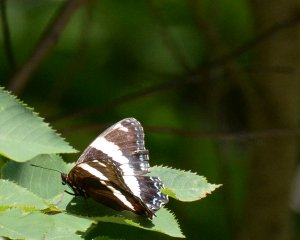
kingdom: Animalia
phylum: Arthropoda
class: Insecta
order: Lepidoptera
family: Nymphalidae
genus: Limenitis
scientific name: Limenitis arthemis
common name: Red-spotted Admiral
